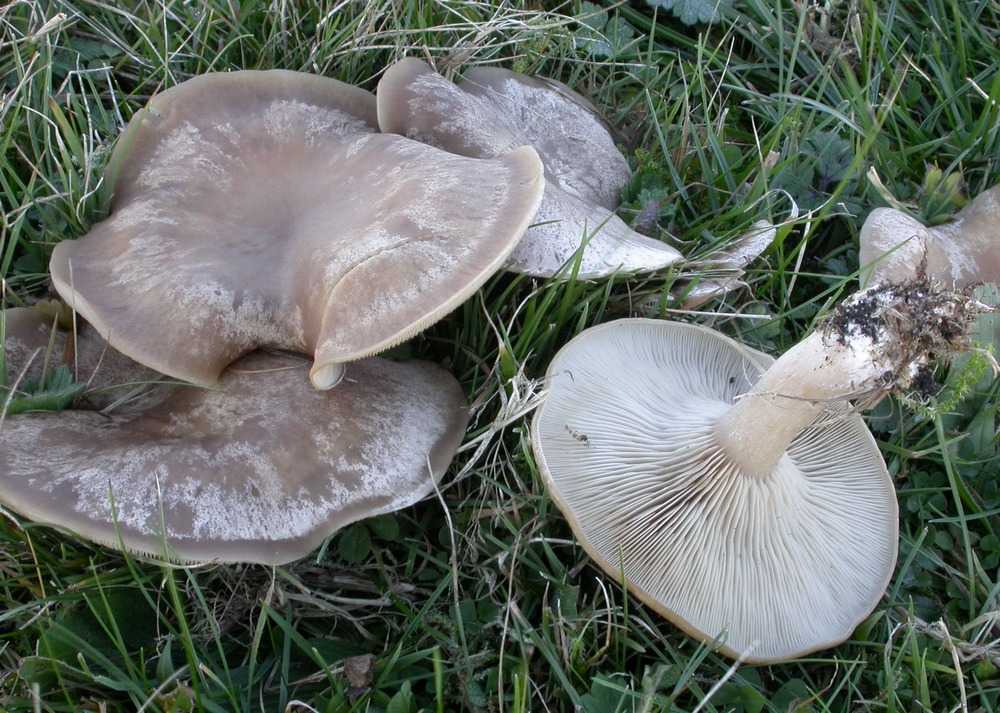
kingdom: Fungi
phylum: Basidiomycota
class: Agaricomycetes
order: Agaricales
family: Tricholomataceae
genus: Lepista
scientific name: Lepista panaeolus
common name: marmoreret hekseringshat
